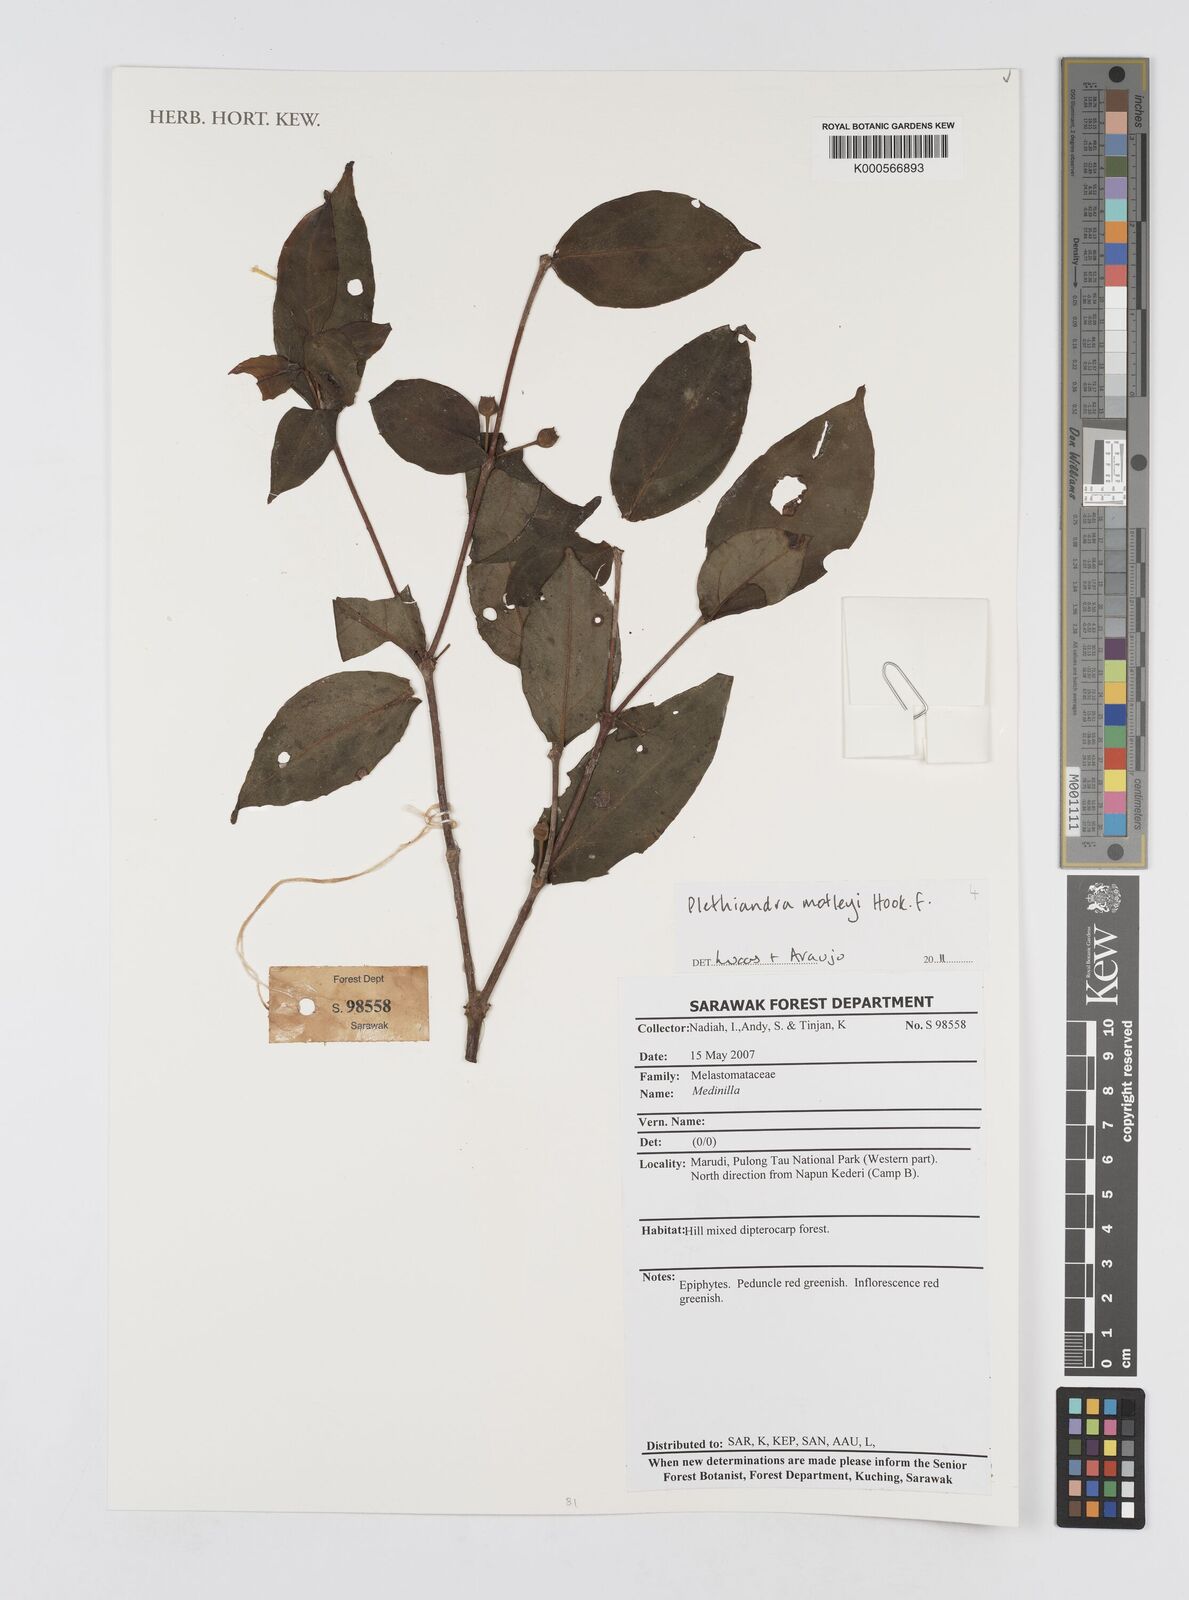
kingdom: Plantae
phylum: Tracheophyta
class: Magnoliopsida
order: Myrtales
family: Melastomataceae
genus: Plethiandra
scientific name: Plethiandra motleyi
